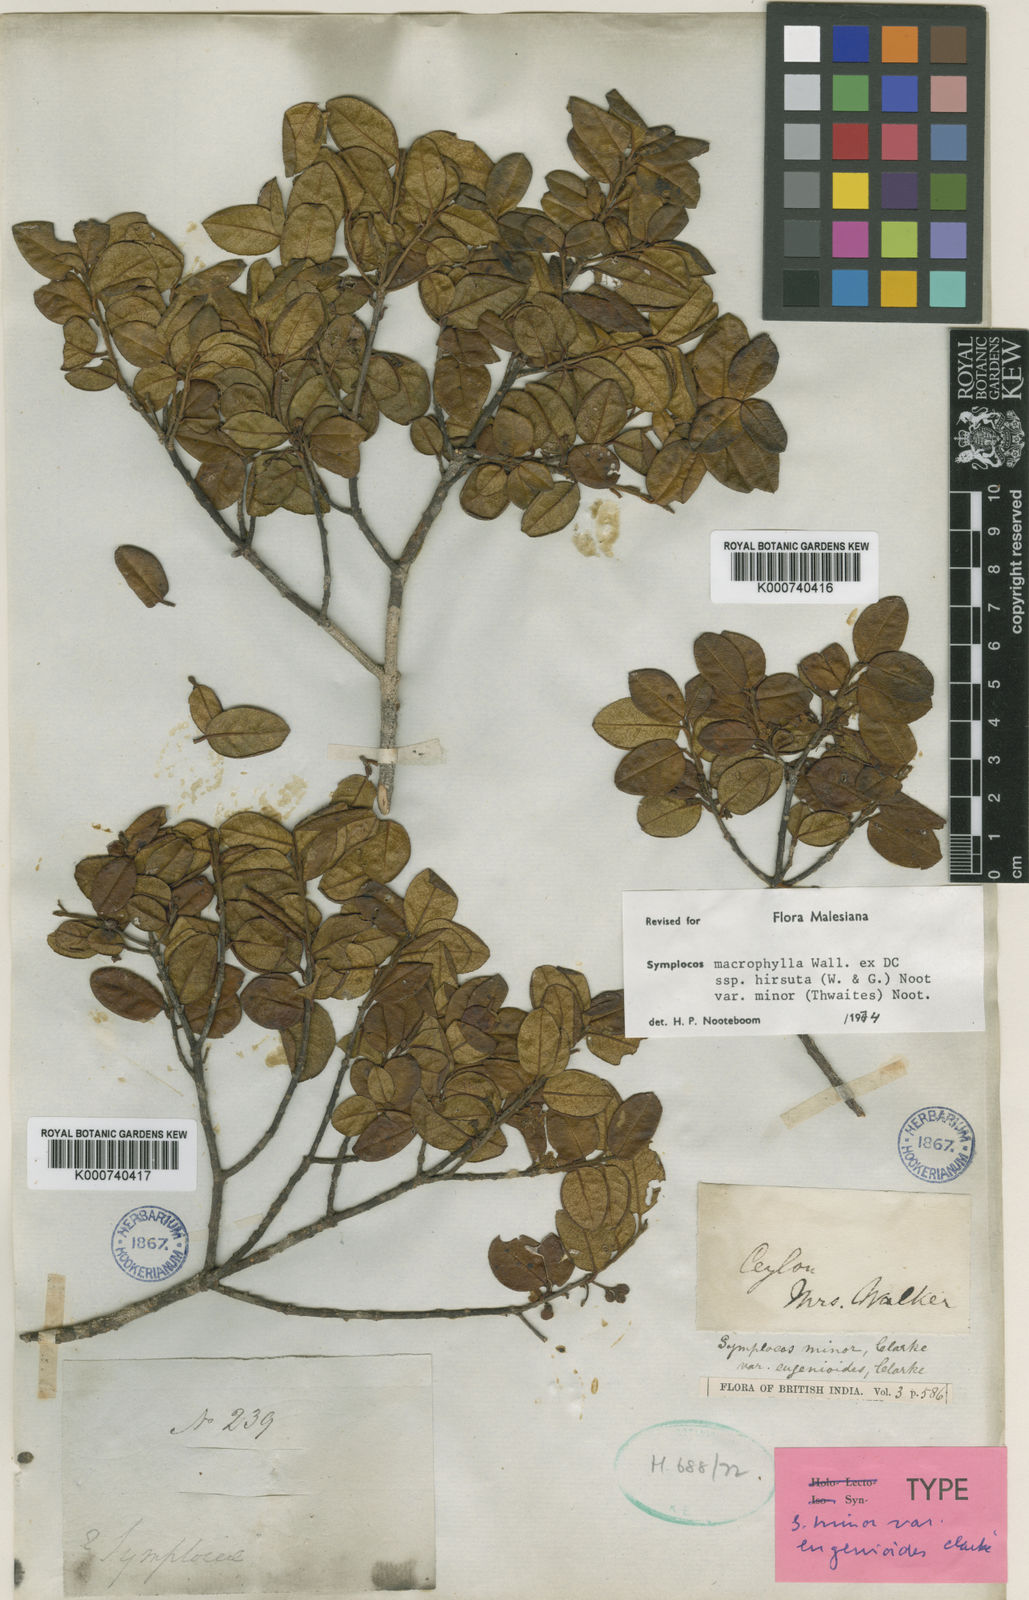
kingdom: Plantae
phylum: Tracheophyta
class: Magnoliopsida
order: Ericales
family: Symplocaceae
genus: Symplocos
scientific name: Symplocos
